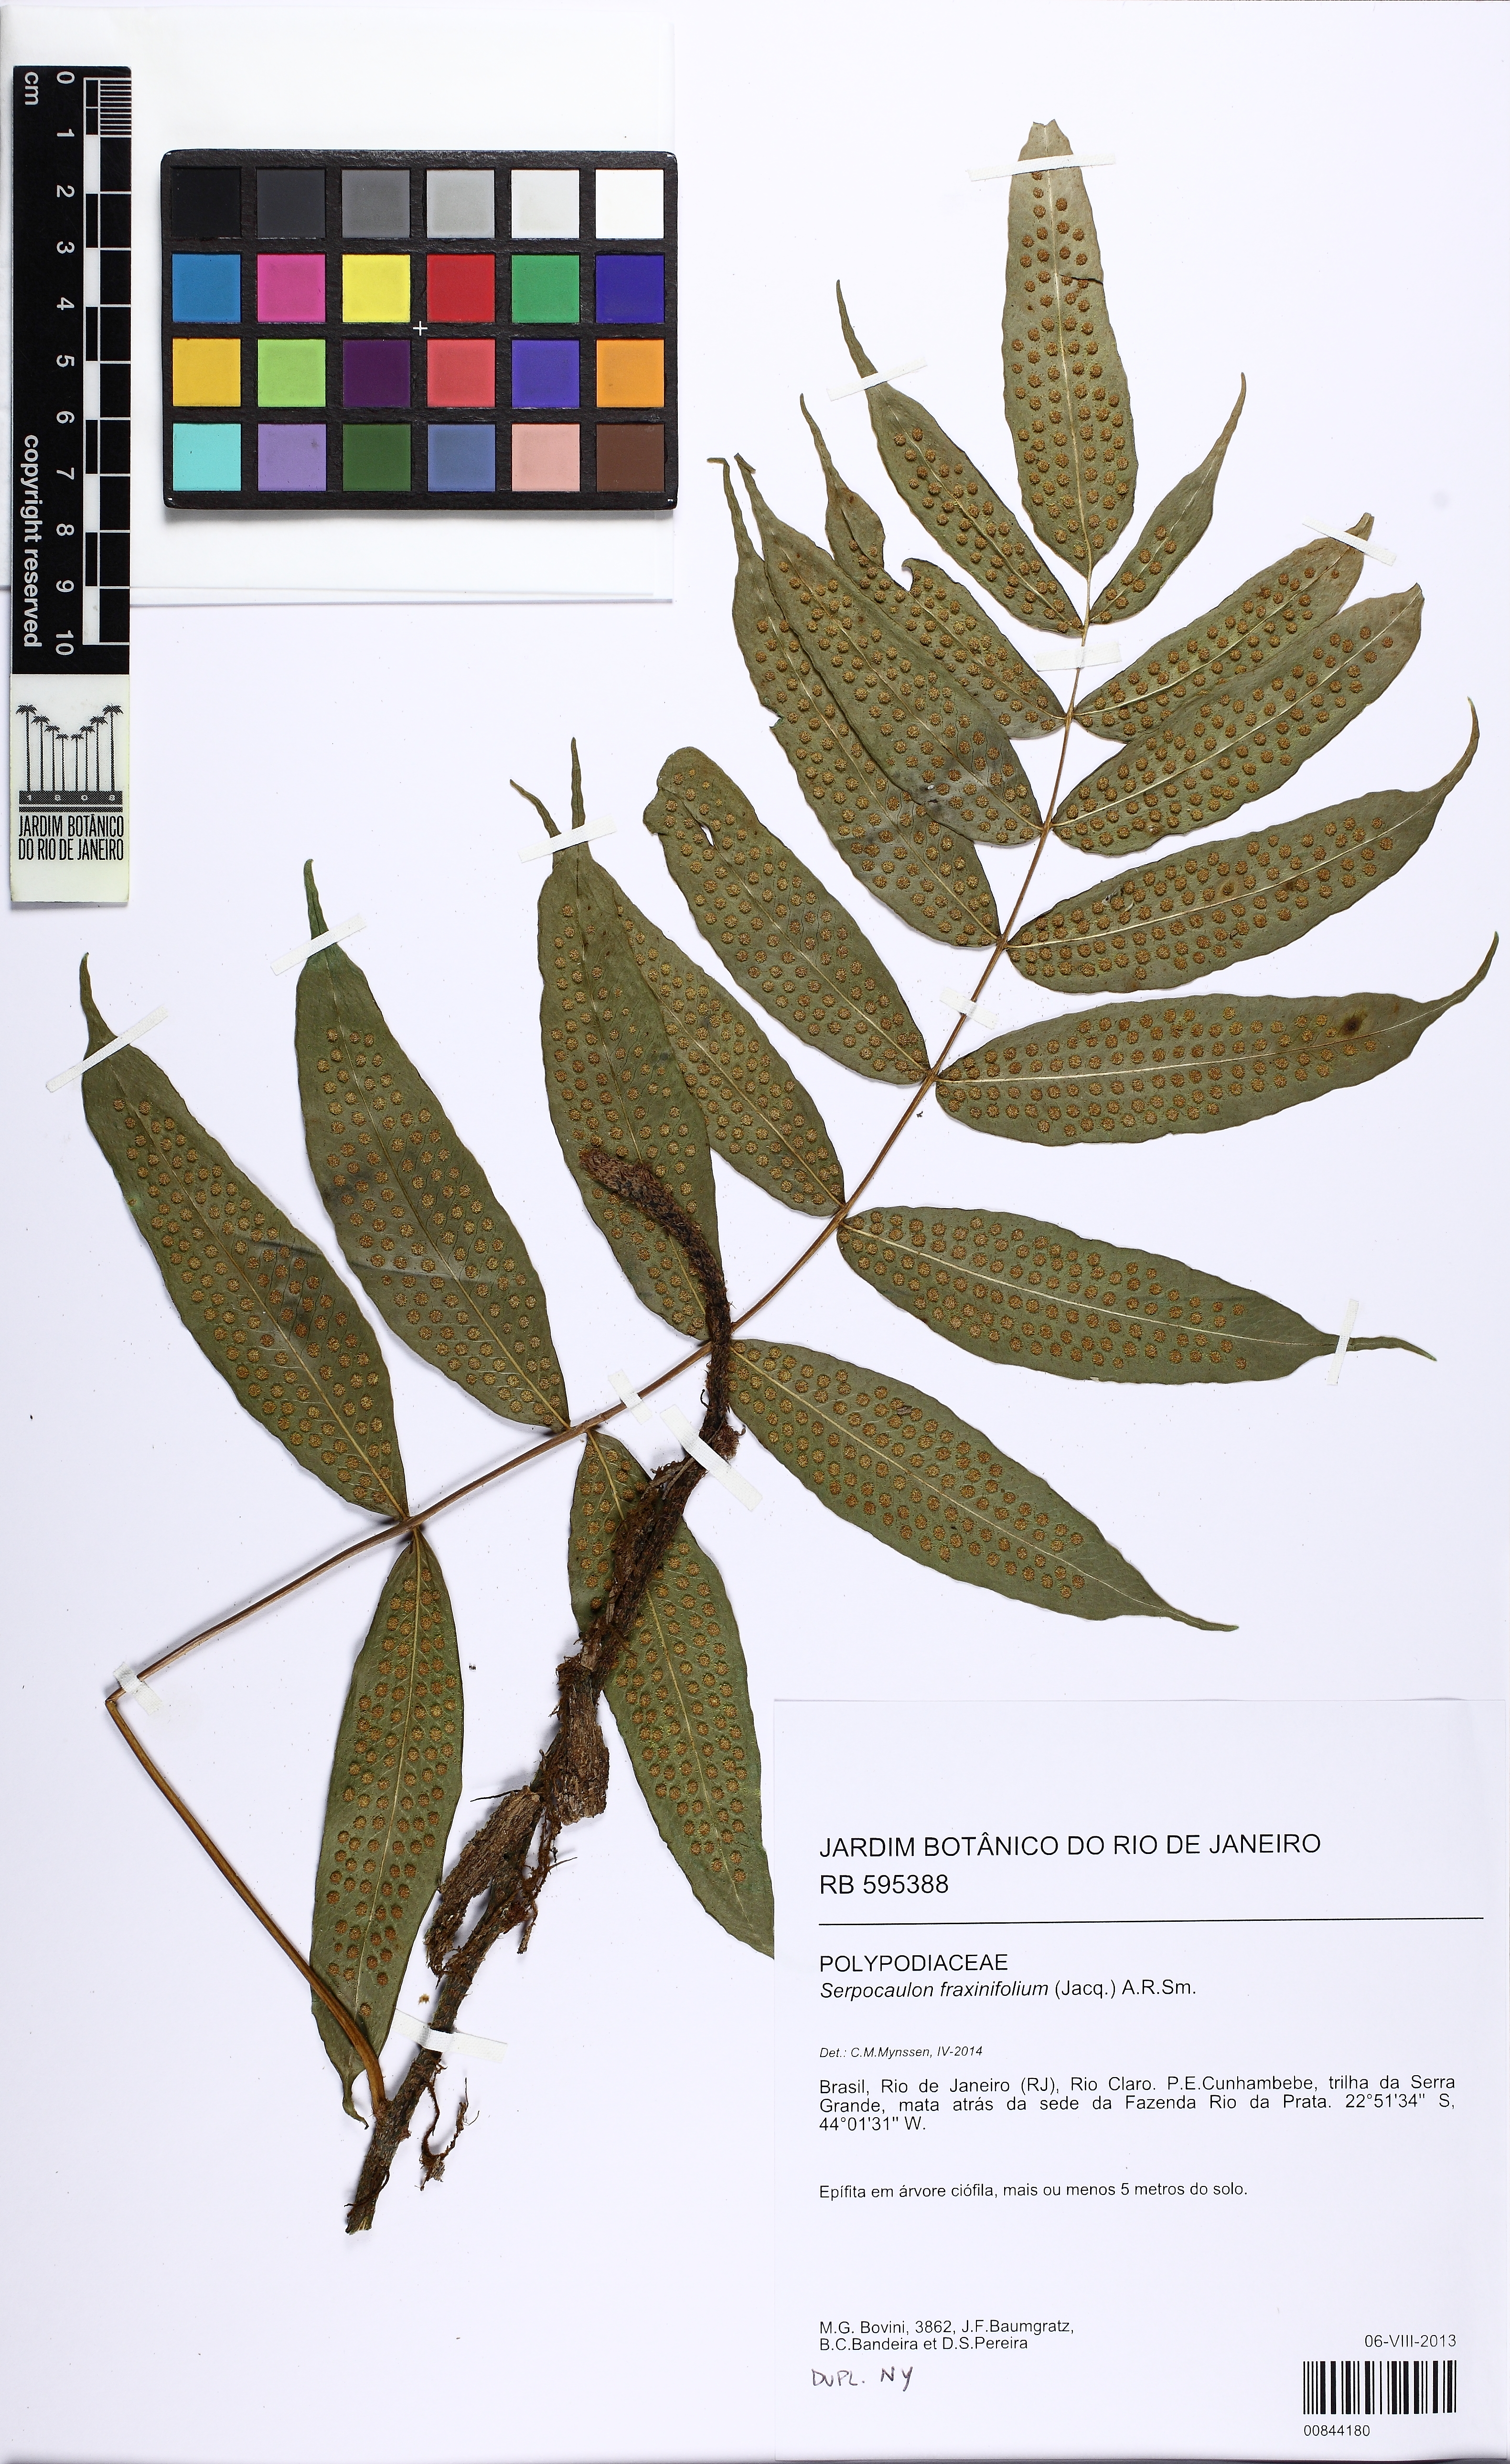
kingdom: Plantae
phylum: Tracheophyta
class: Polypodiopsida
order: Polypodiales
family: Polypodiaceae
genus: Serpocaulon
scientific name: Serpocaulon fraxinifolium
